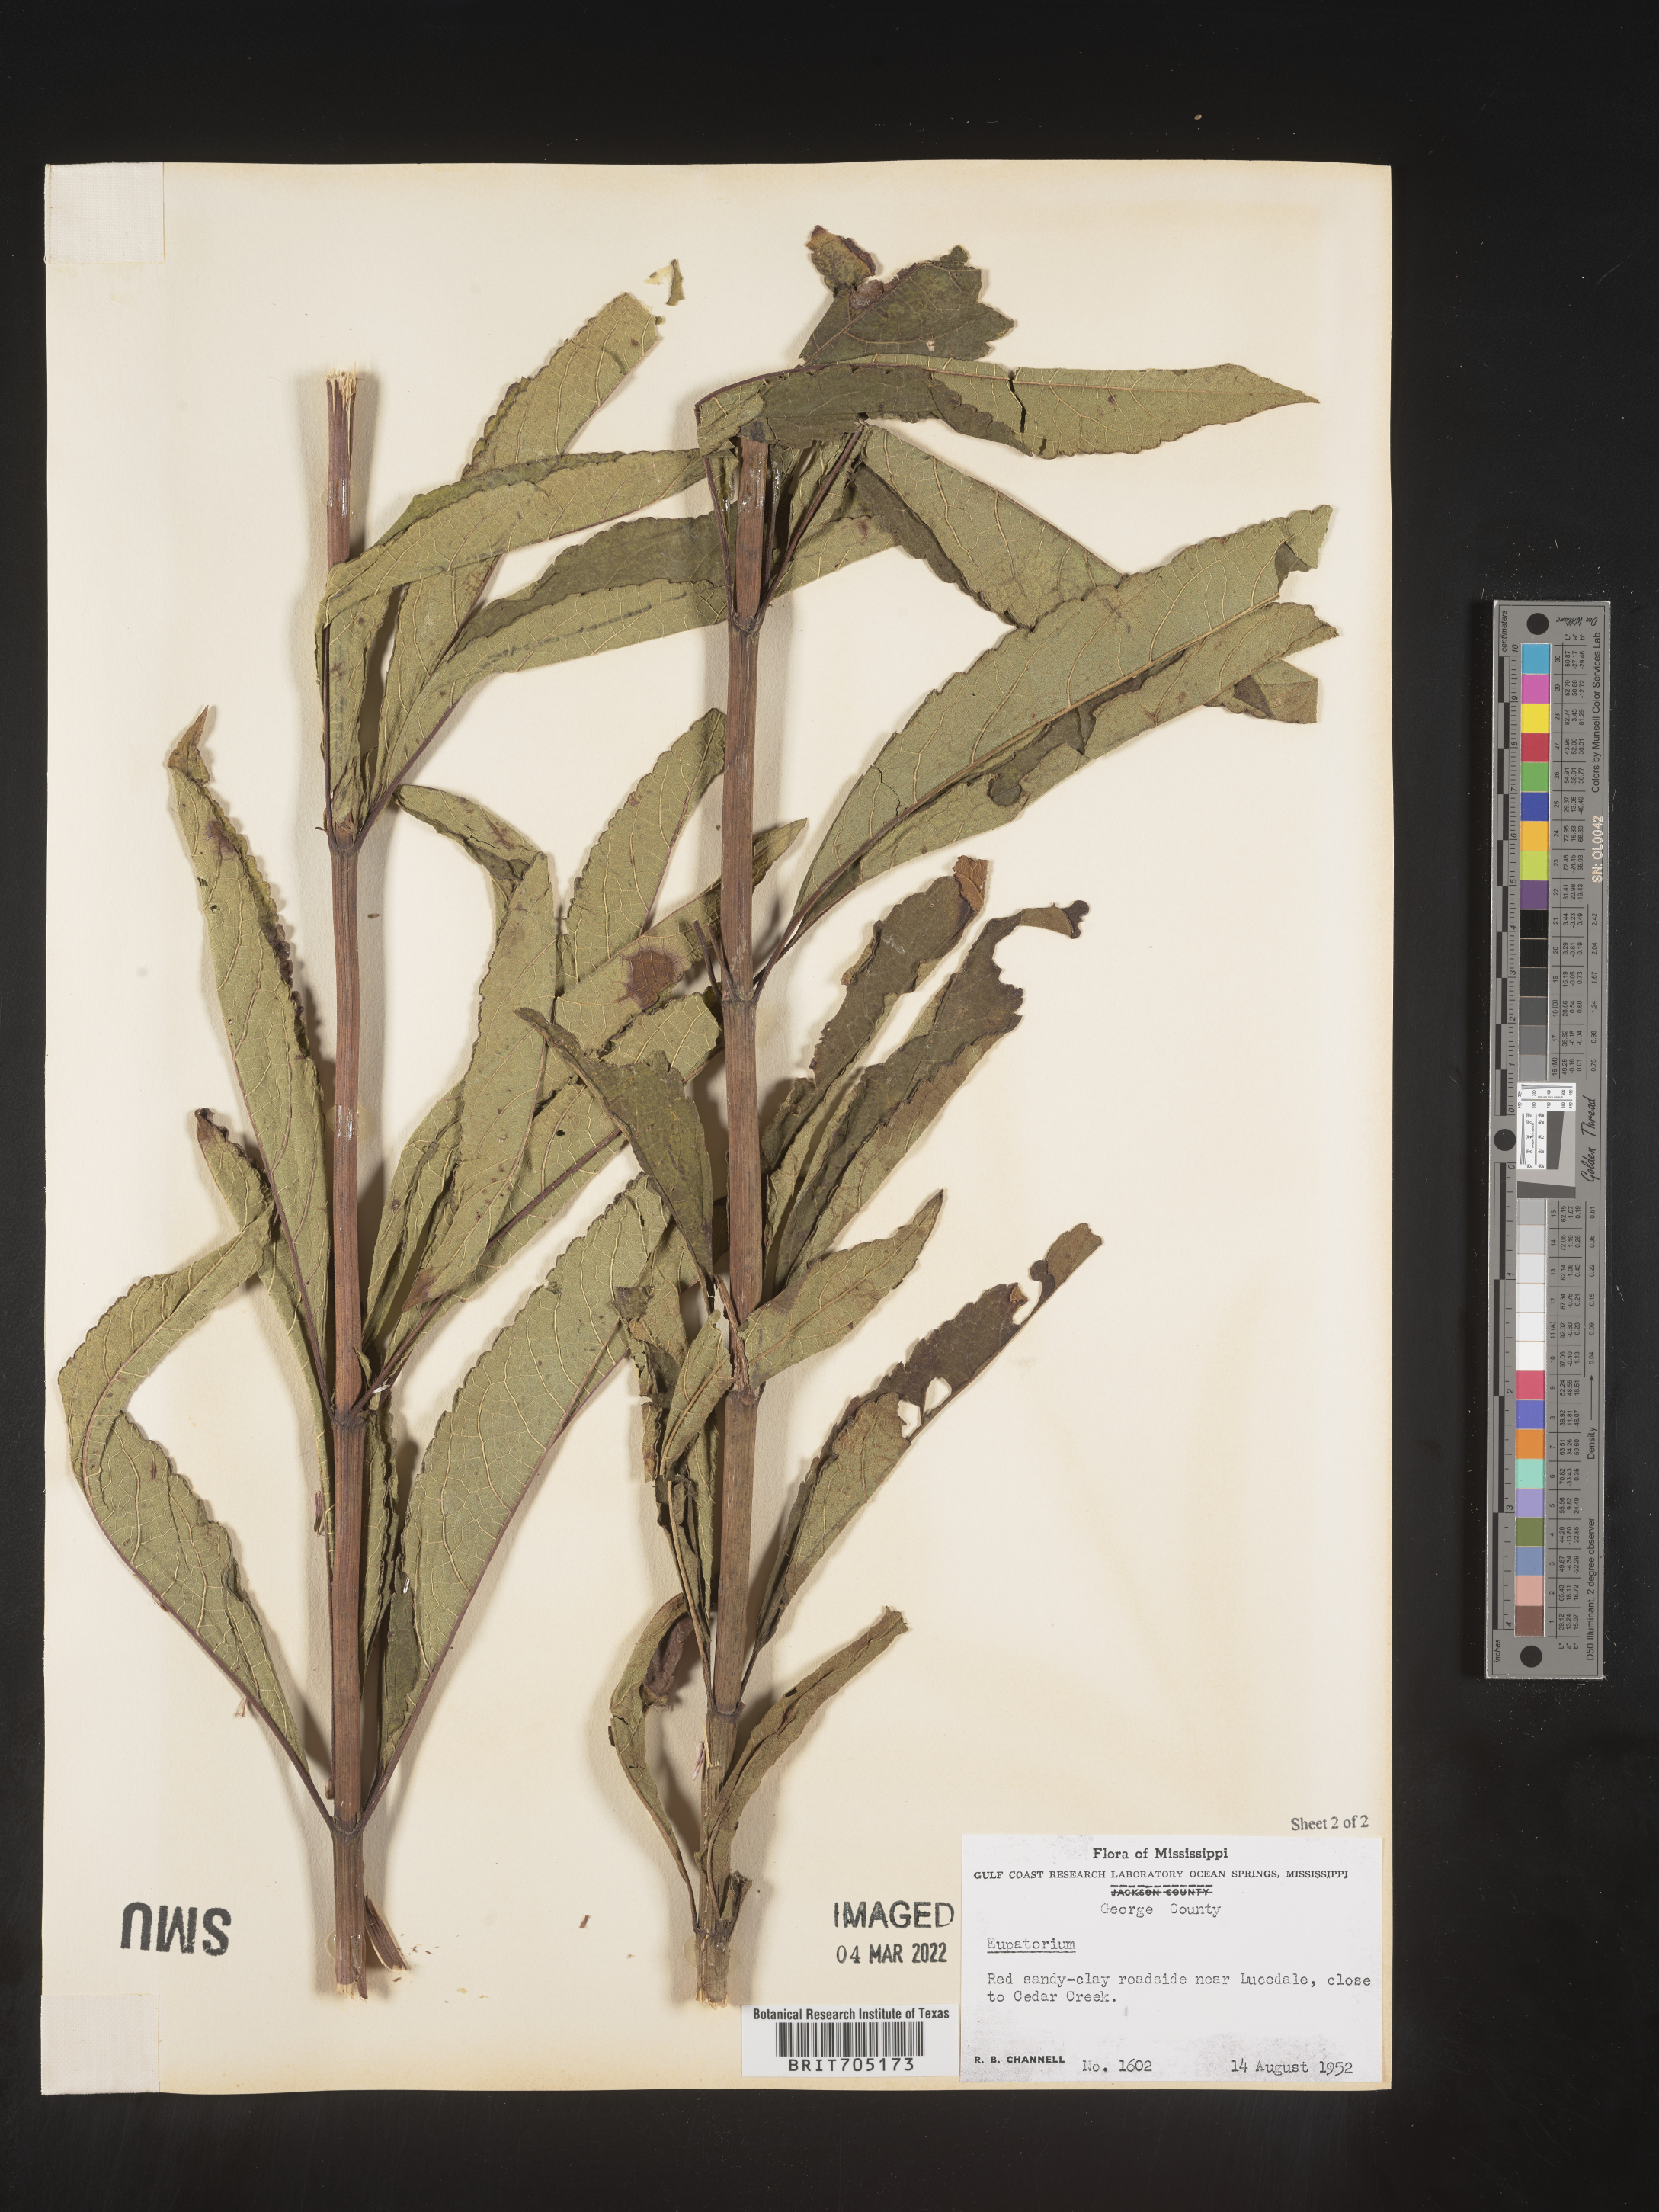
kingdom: Plantae
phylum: Tracheophyta
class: Magnoliopsida
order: Asterales
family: Asteraceae
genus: Eupatorium
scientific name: Eupatorium
